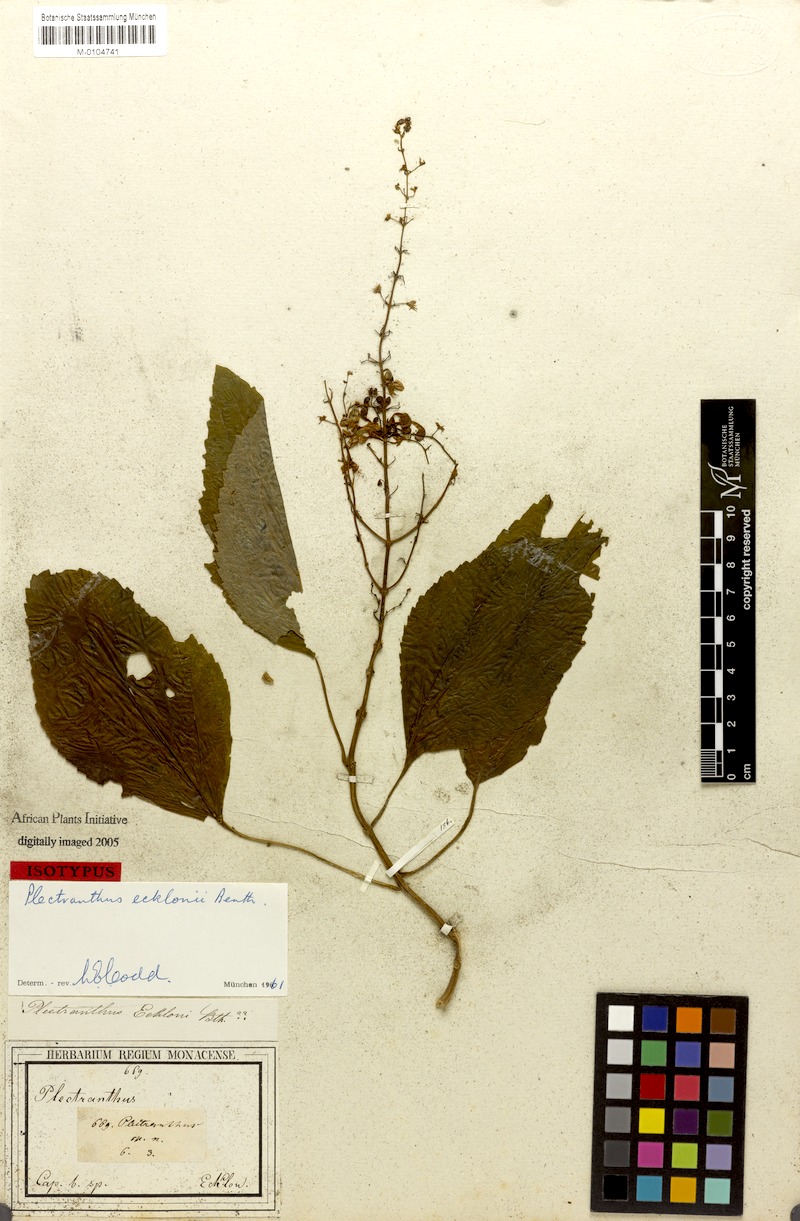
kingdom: Plantae
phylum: Tracheophyta
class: Magnoliopsida
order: Lamiales
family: Lamiaceae
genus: Plectranthus
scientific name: Plectranthus ecklonii
